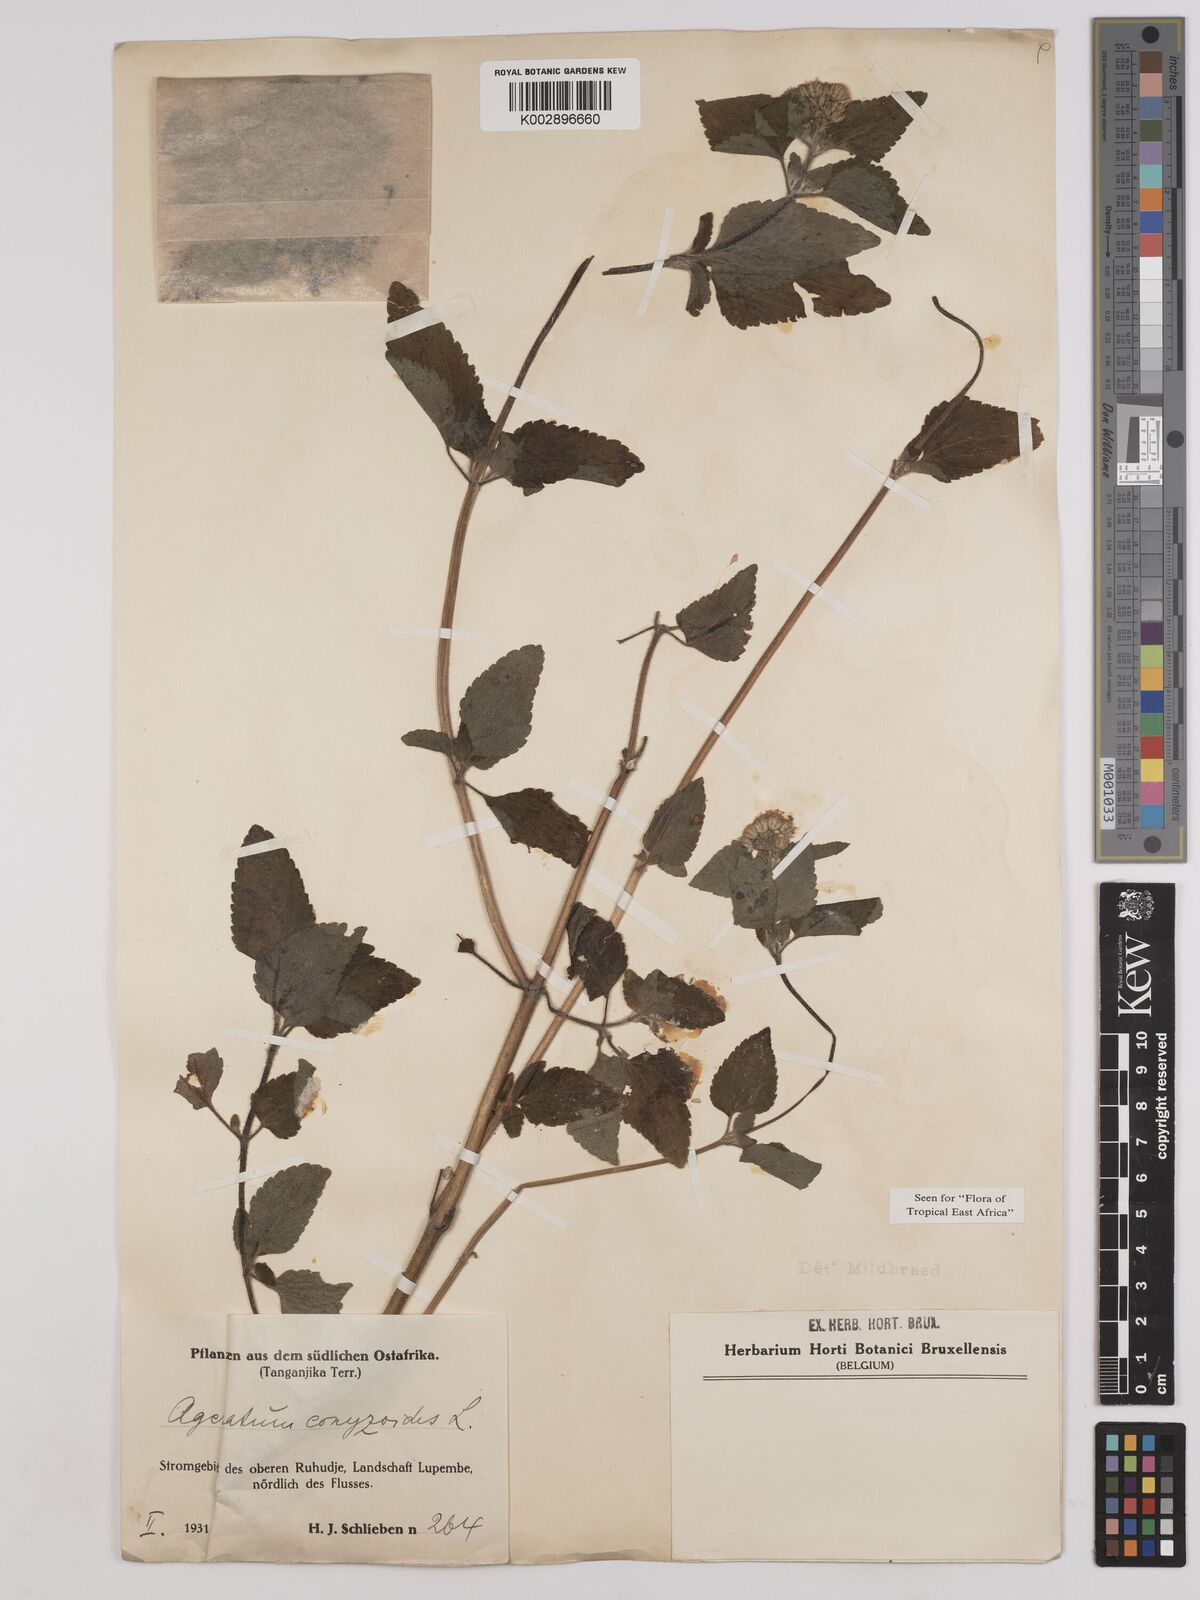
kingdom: Plantae
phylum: Tracheophyta
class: Magnoliopsida
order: Asterales
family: Asteraceae
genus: Ageratum
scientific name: Ageratum conyzoides
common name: Tropical whiteweed
